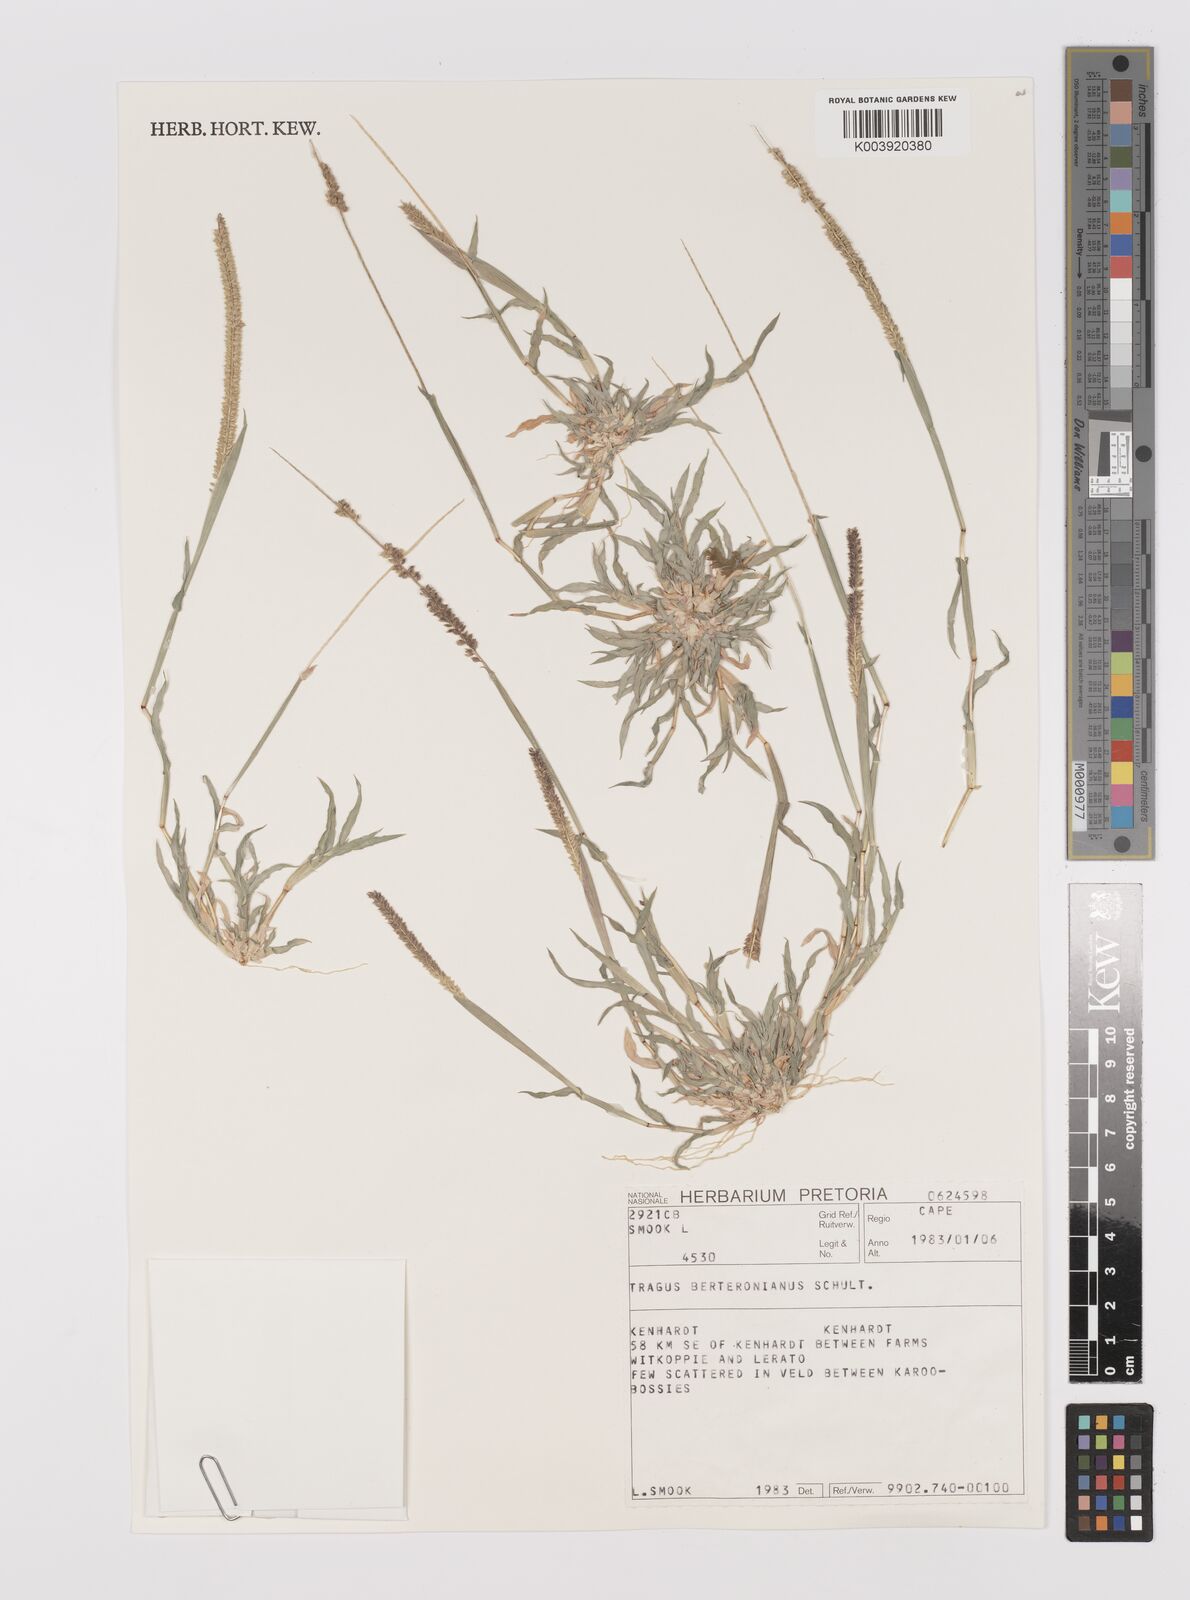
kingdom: Plantae
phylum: Tracheophyta
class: Liliopsida
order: Poales
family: Poaceae
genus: Tragus
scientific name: Tragus berteronianus
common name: African bur-grass
